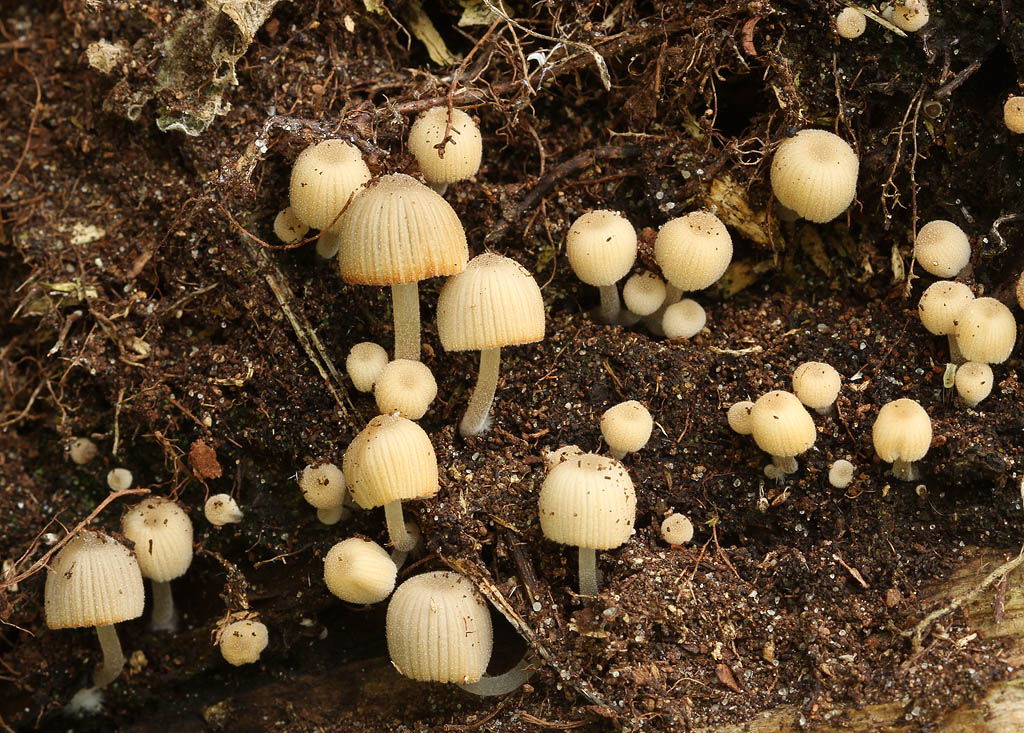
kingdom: Fungi
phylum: Basidiomycota
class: Agaricomycetes
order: Agaricales
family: Psathyrellaceae
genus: Coprinellus
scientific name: Coprinellus disseminatus
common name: bredsået blækhat
